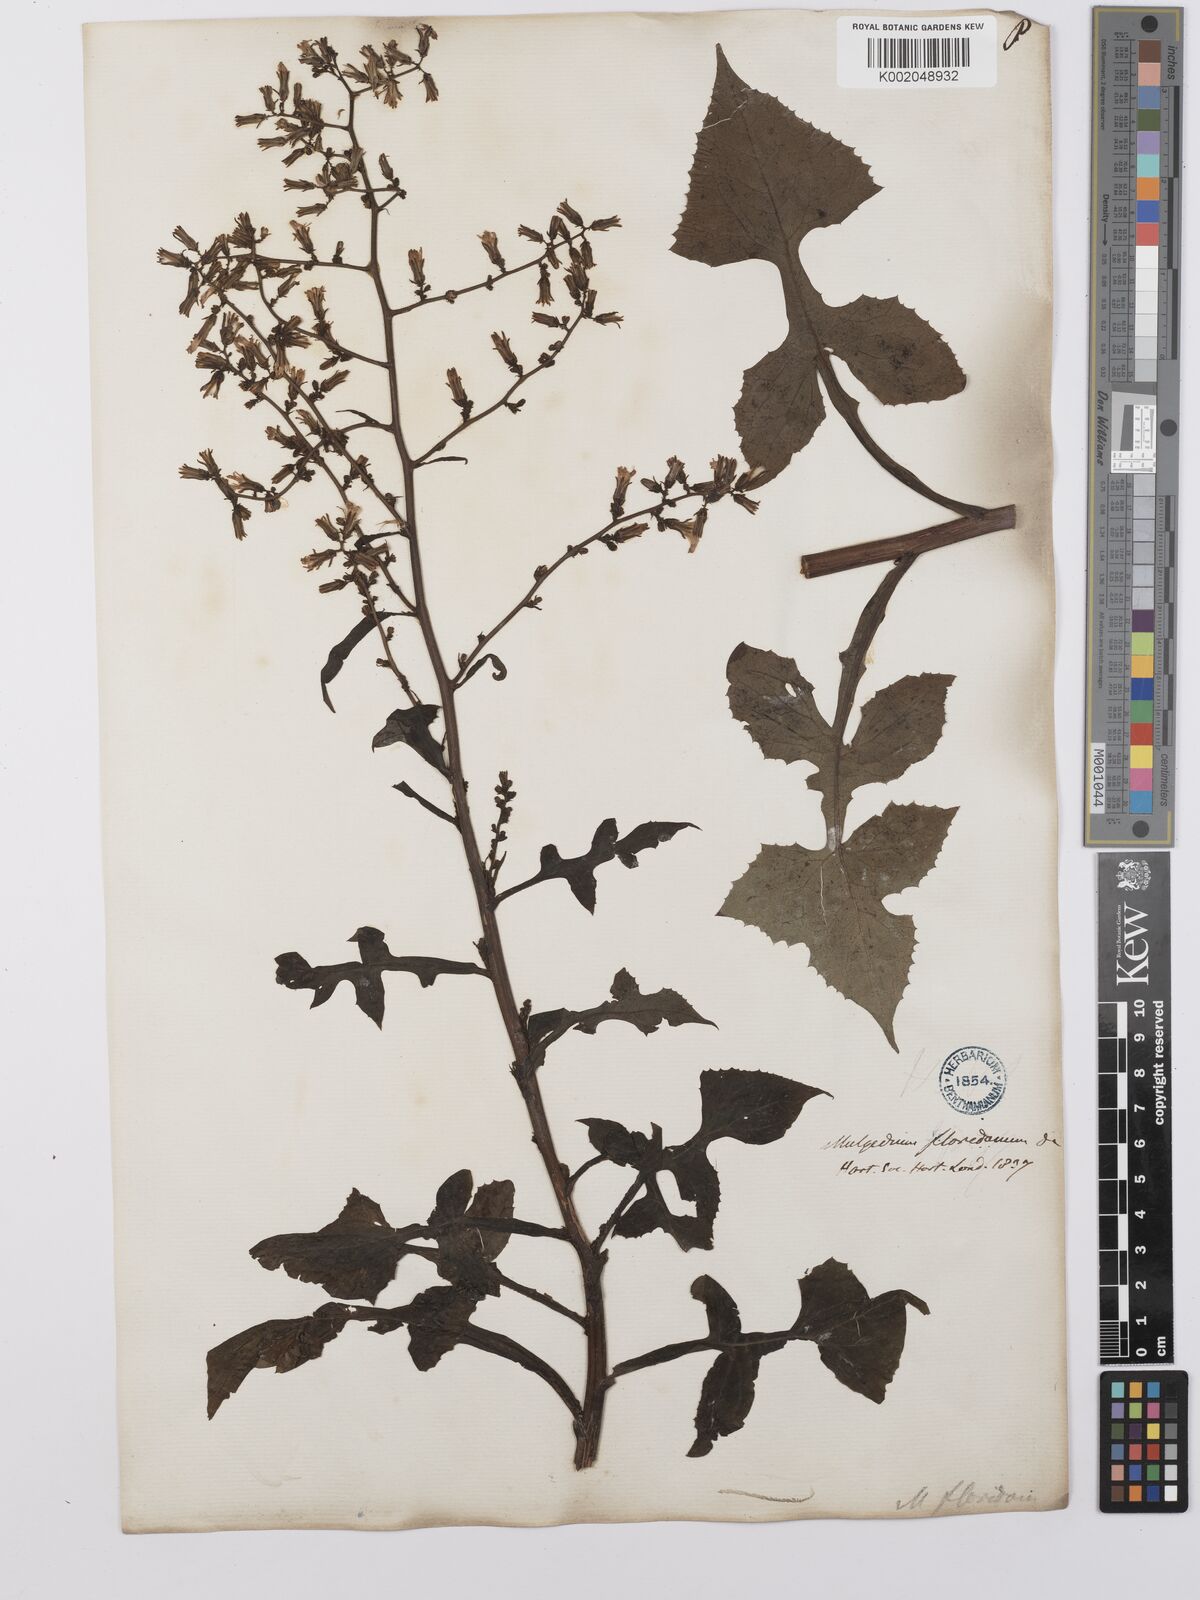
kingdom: Plantae
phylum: Tracheophyta
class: Magnoliopsida
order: Asterales
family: Asteraceae
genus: Lactuca
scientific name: Lactuca floridana
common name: Woodland lettuce
